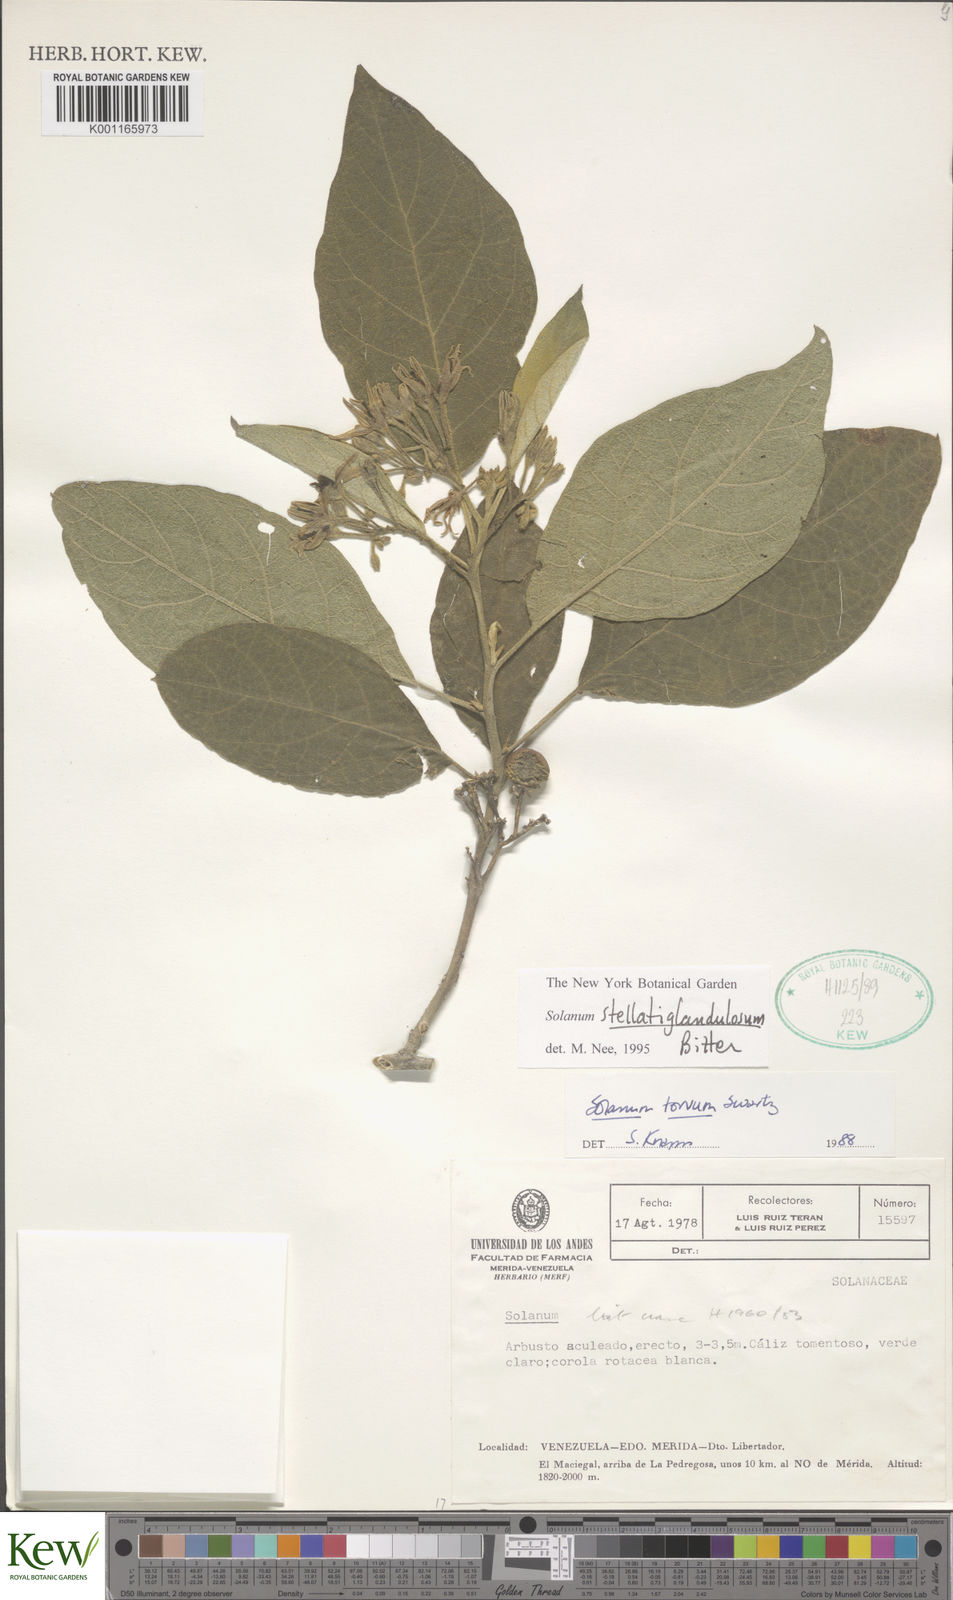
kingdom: Plantae
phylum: Tracheophyta
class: Magnoliopsida
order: Solanales
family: Solanaceae
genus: Solanum
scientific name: Solanum stellatiglandulosum
